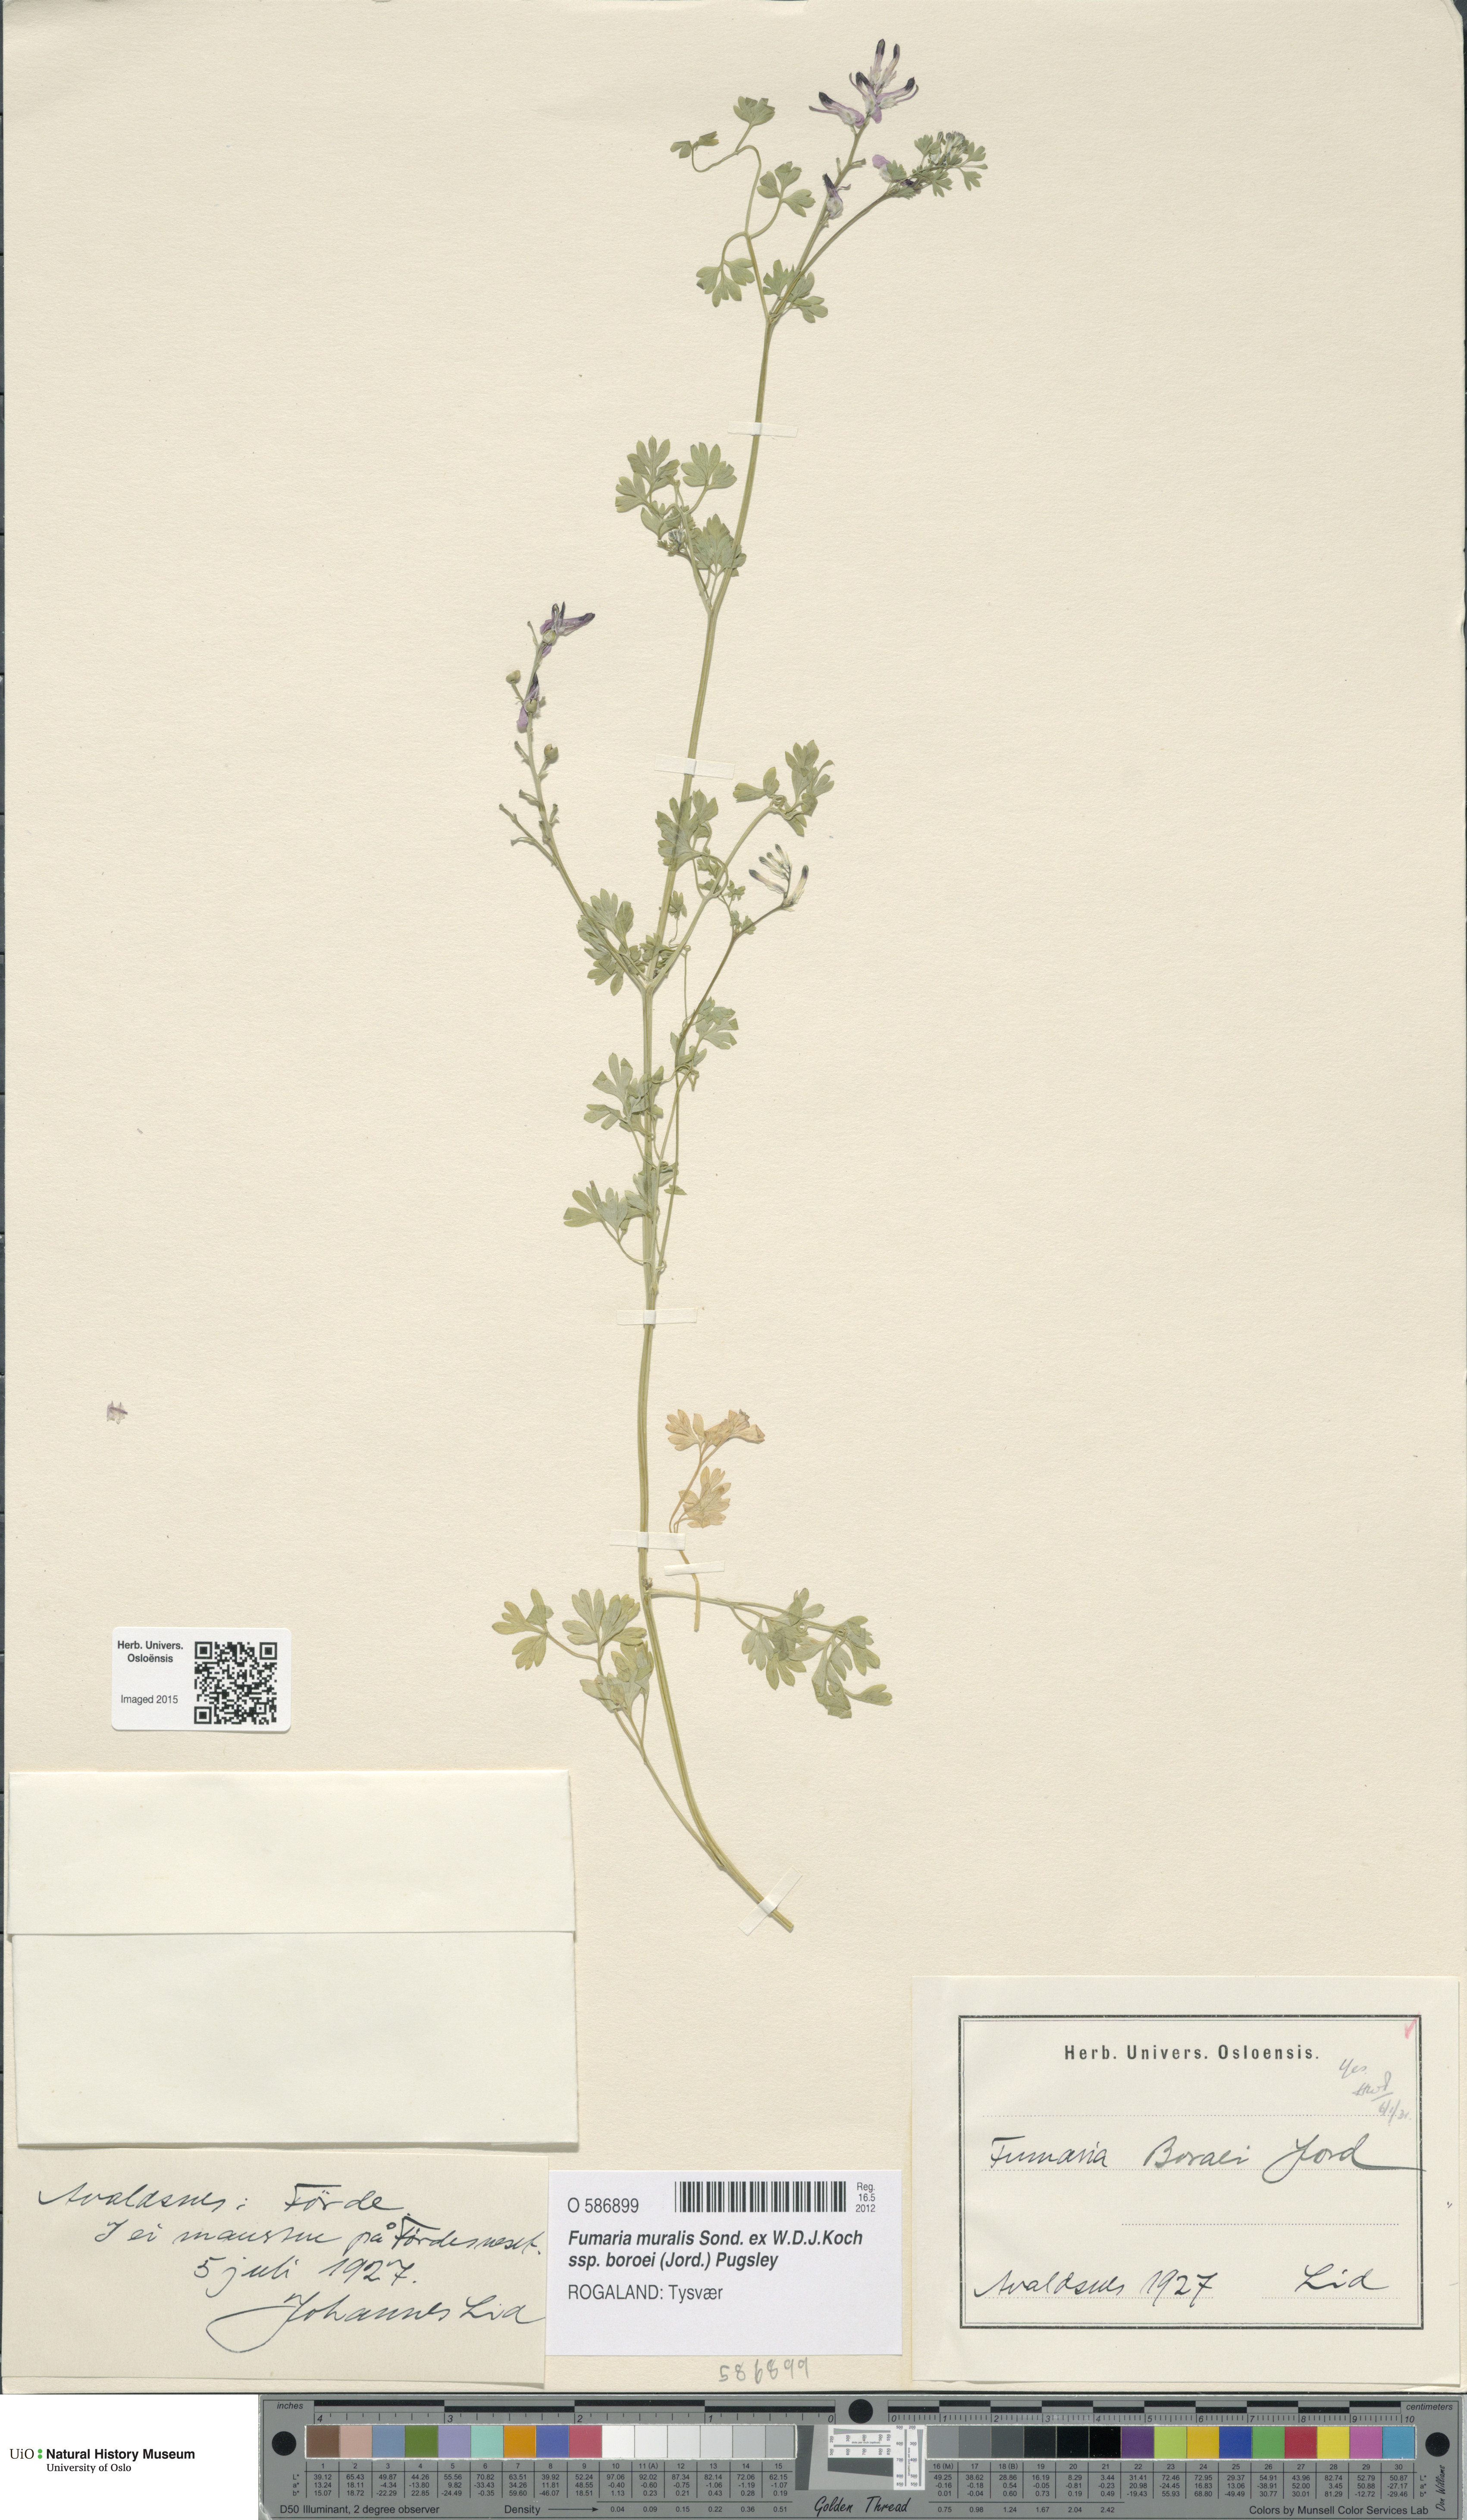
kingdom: Plantae
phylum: Tracheophyta
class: Magnoliopsida
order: Ranunculales
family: Papaveraceae
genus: Fumaria
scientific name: Fumaria muralis
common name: Common ramping-fumitory
